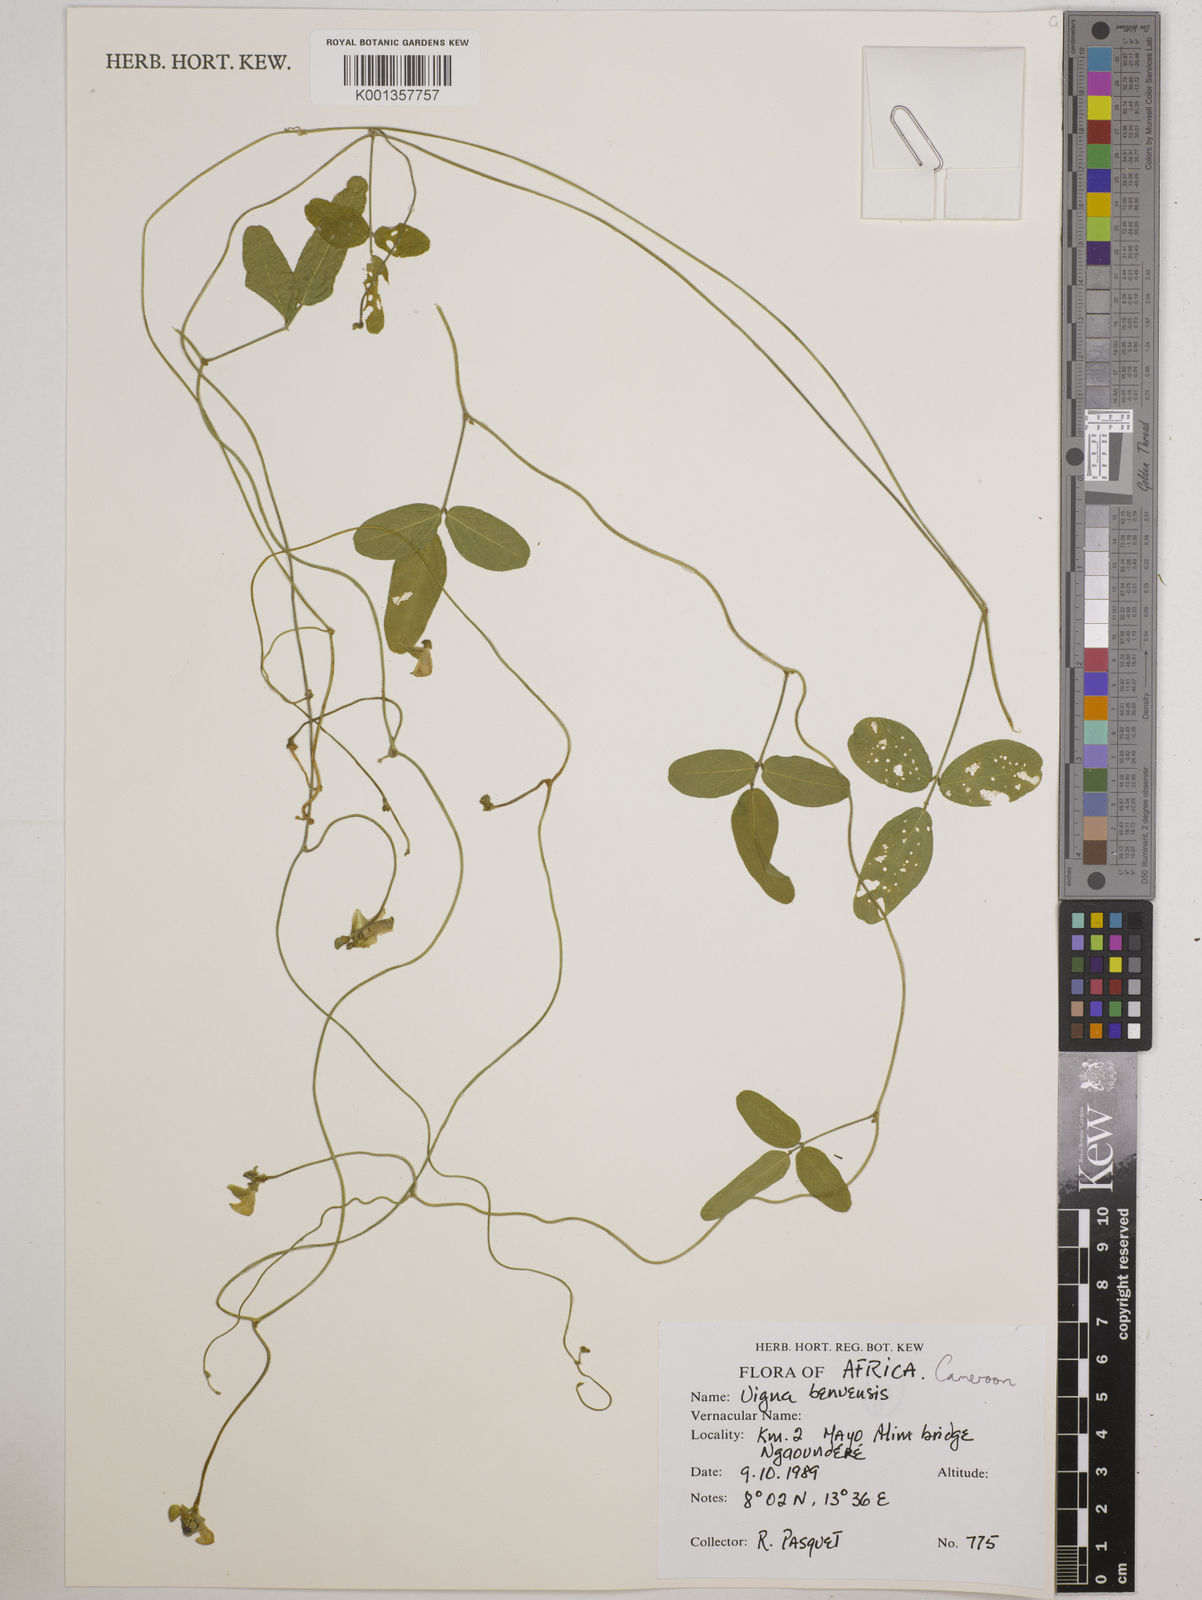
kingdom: Plantae
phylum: Tracheophyta
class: Magnoliopsida
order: Fabales
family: Fabaceae
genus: Vigna
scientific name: Vigna pubigera
